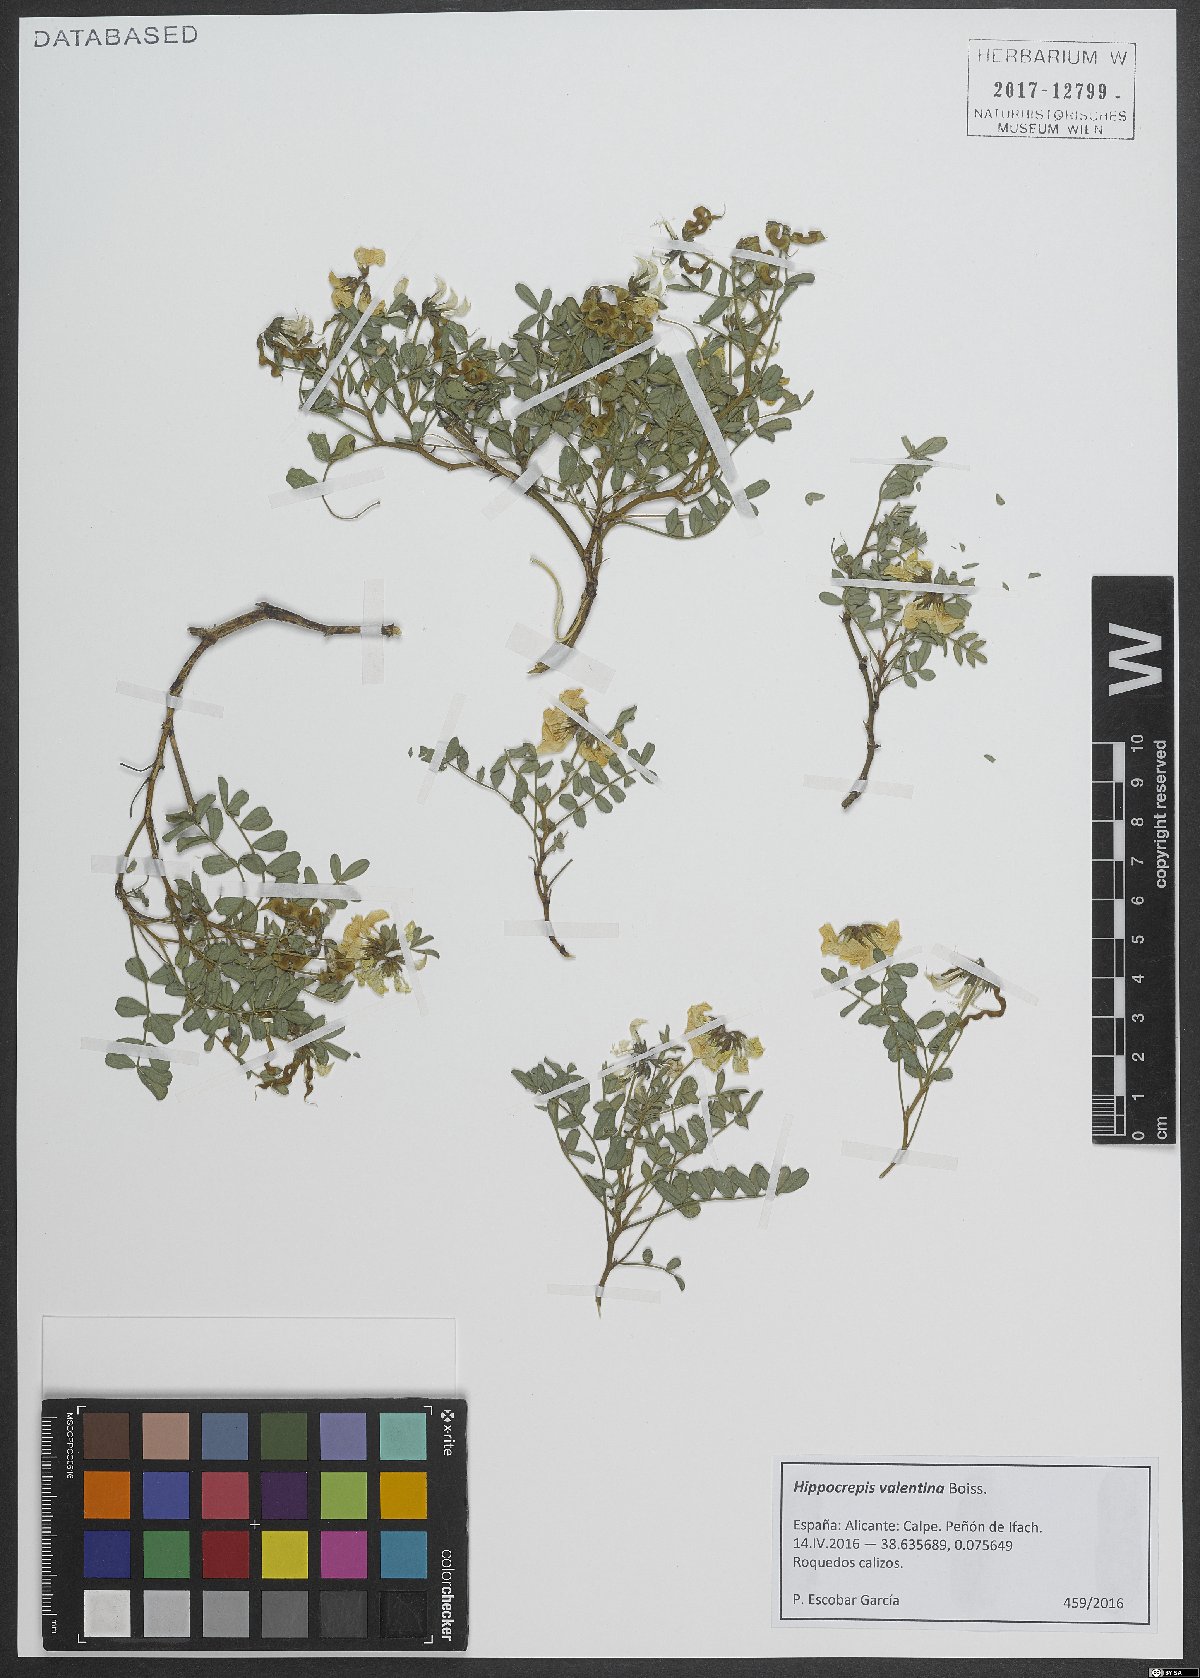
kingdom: Plantae
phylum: Tracheophyta
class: Magnoliopsida
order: Fabales
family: Fabaceae
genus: Hippocrepis
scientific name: Hippocrepis valentina
